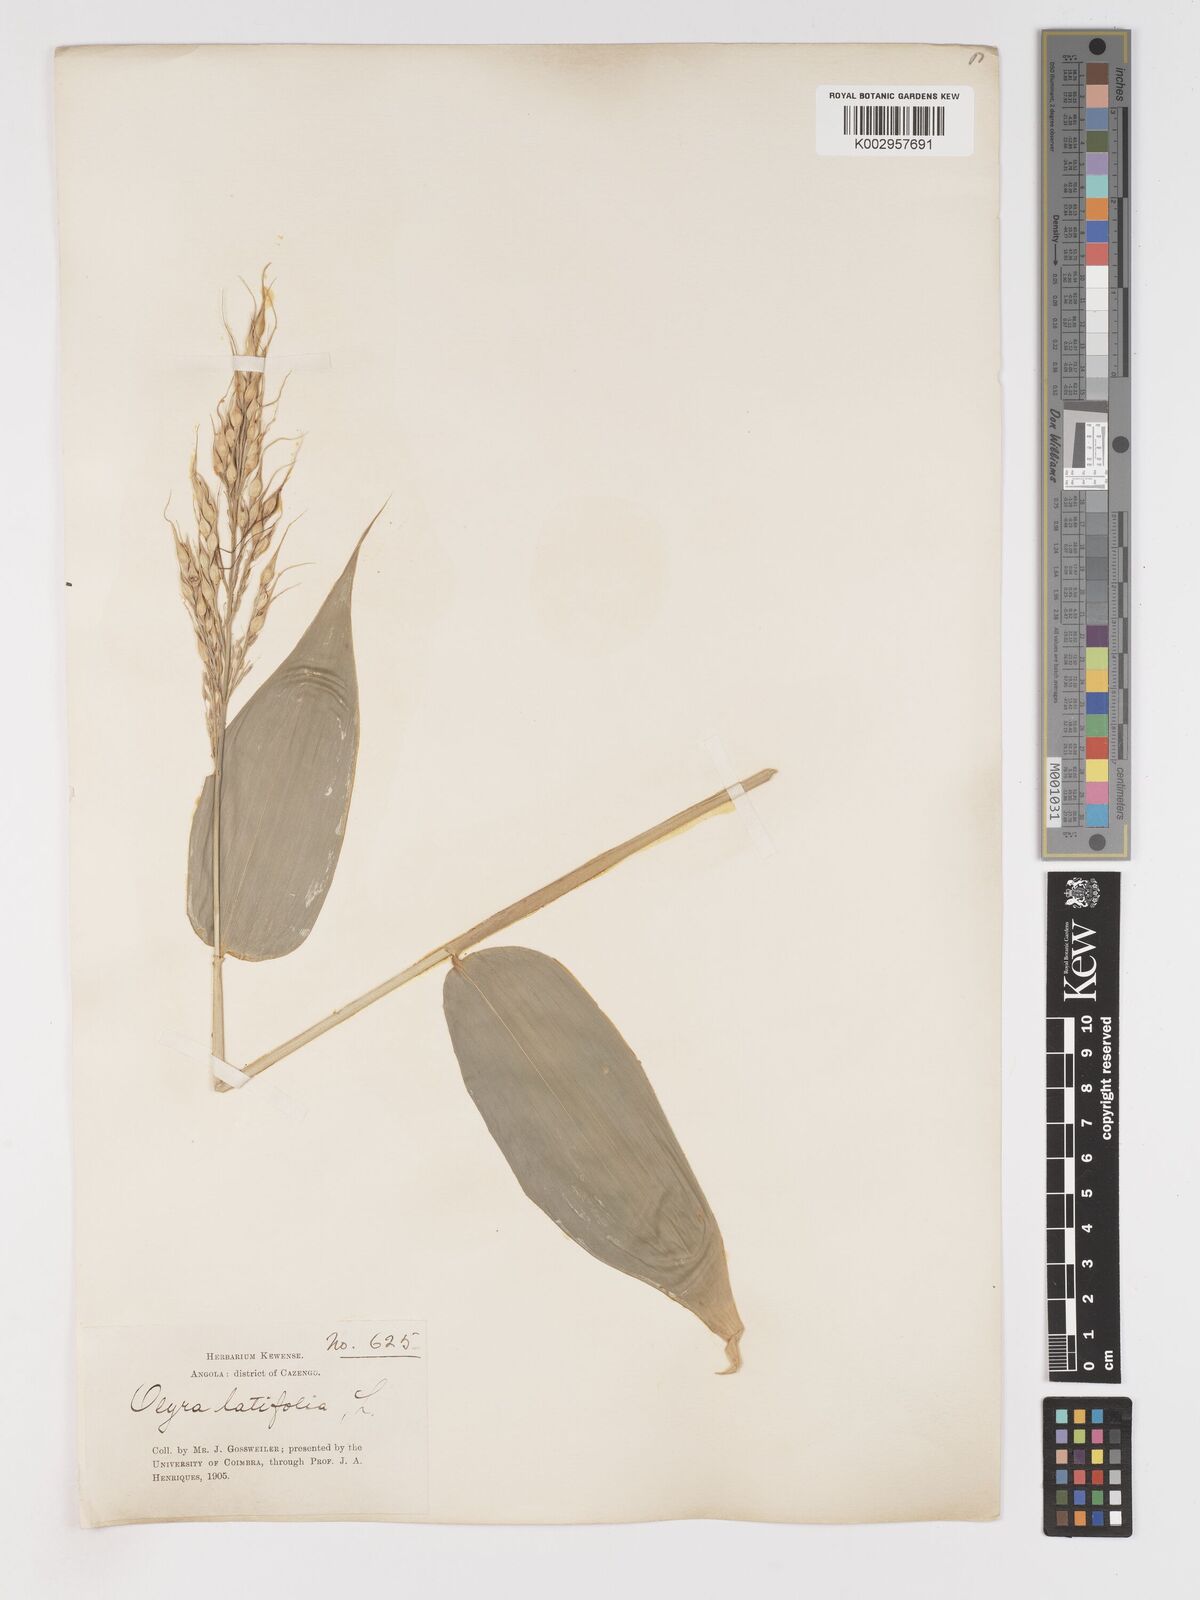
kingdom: Plantae
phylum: Tracheophyta
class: Liliopsida
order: Poales
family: Poaceae
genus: Olyra
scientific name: Olyra latifolia
